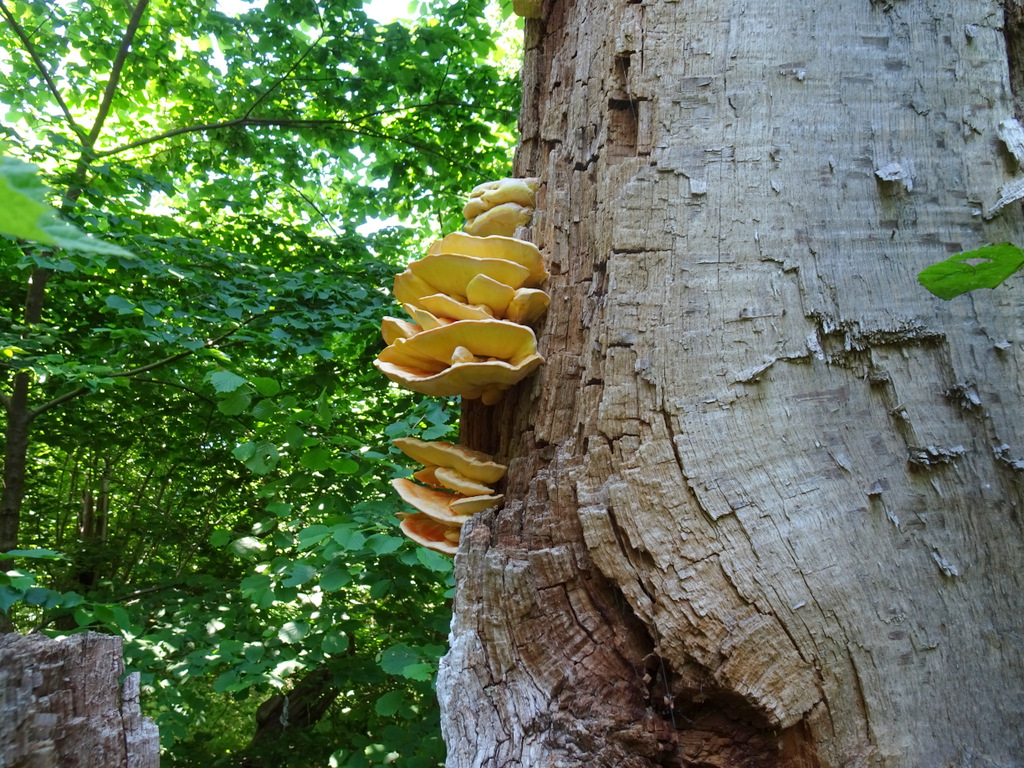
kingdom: Fungi
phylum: Basidiomycota
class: Agaricomycetes
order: Polyporales
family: Laetiporaceae
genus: Laetiporus
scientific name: Laetiporus sulphureus
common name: svovlporesvamp
